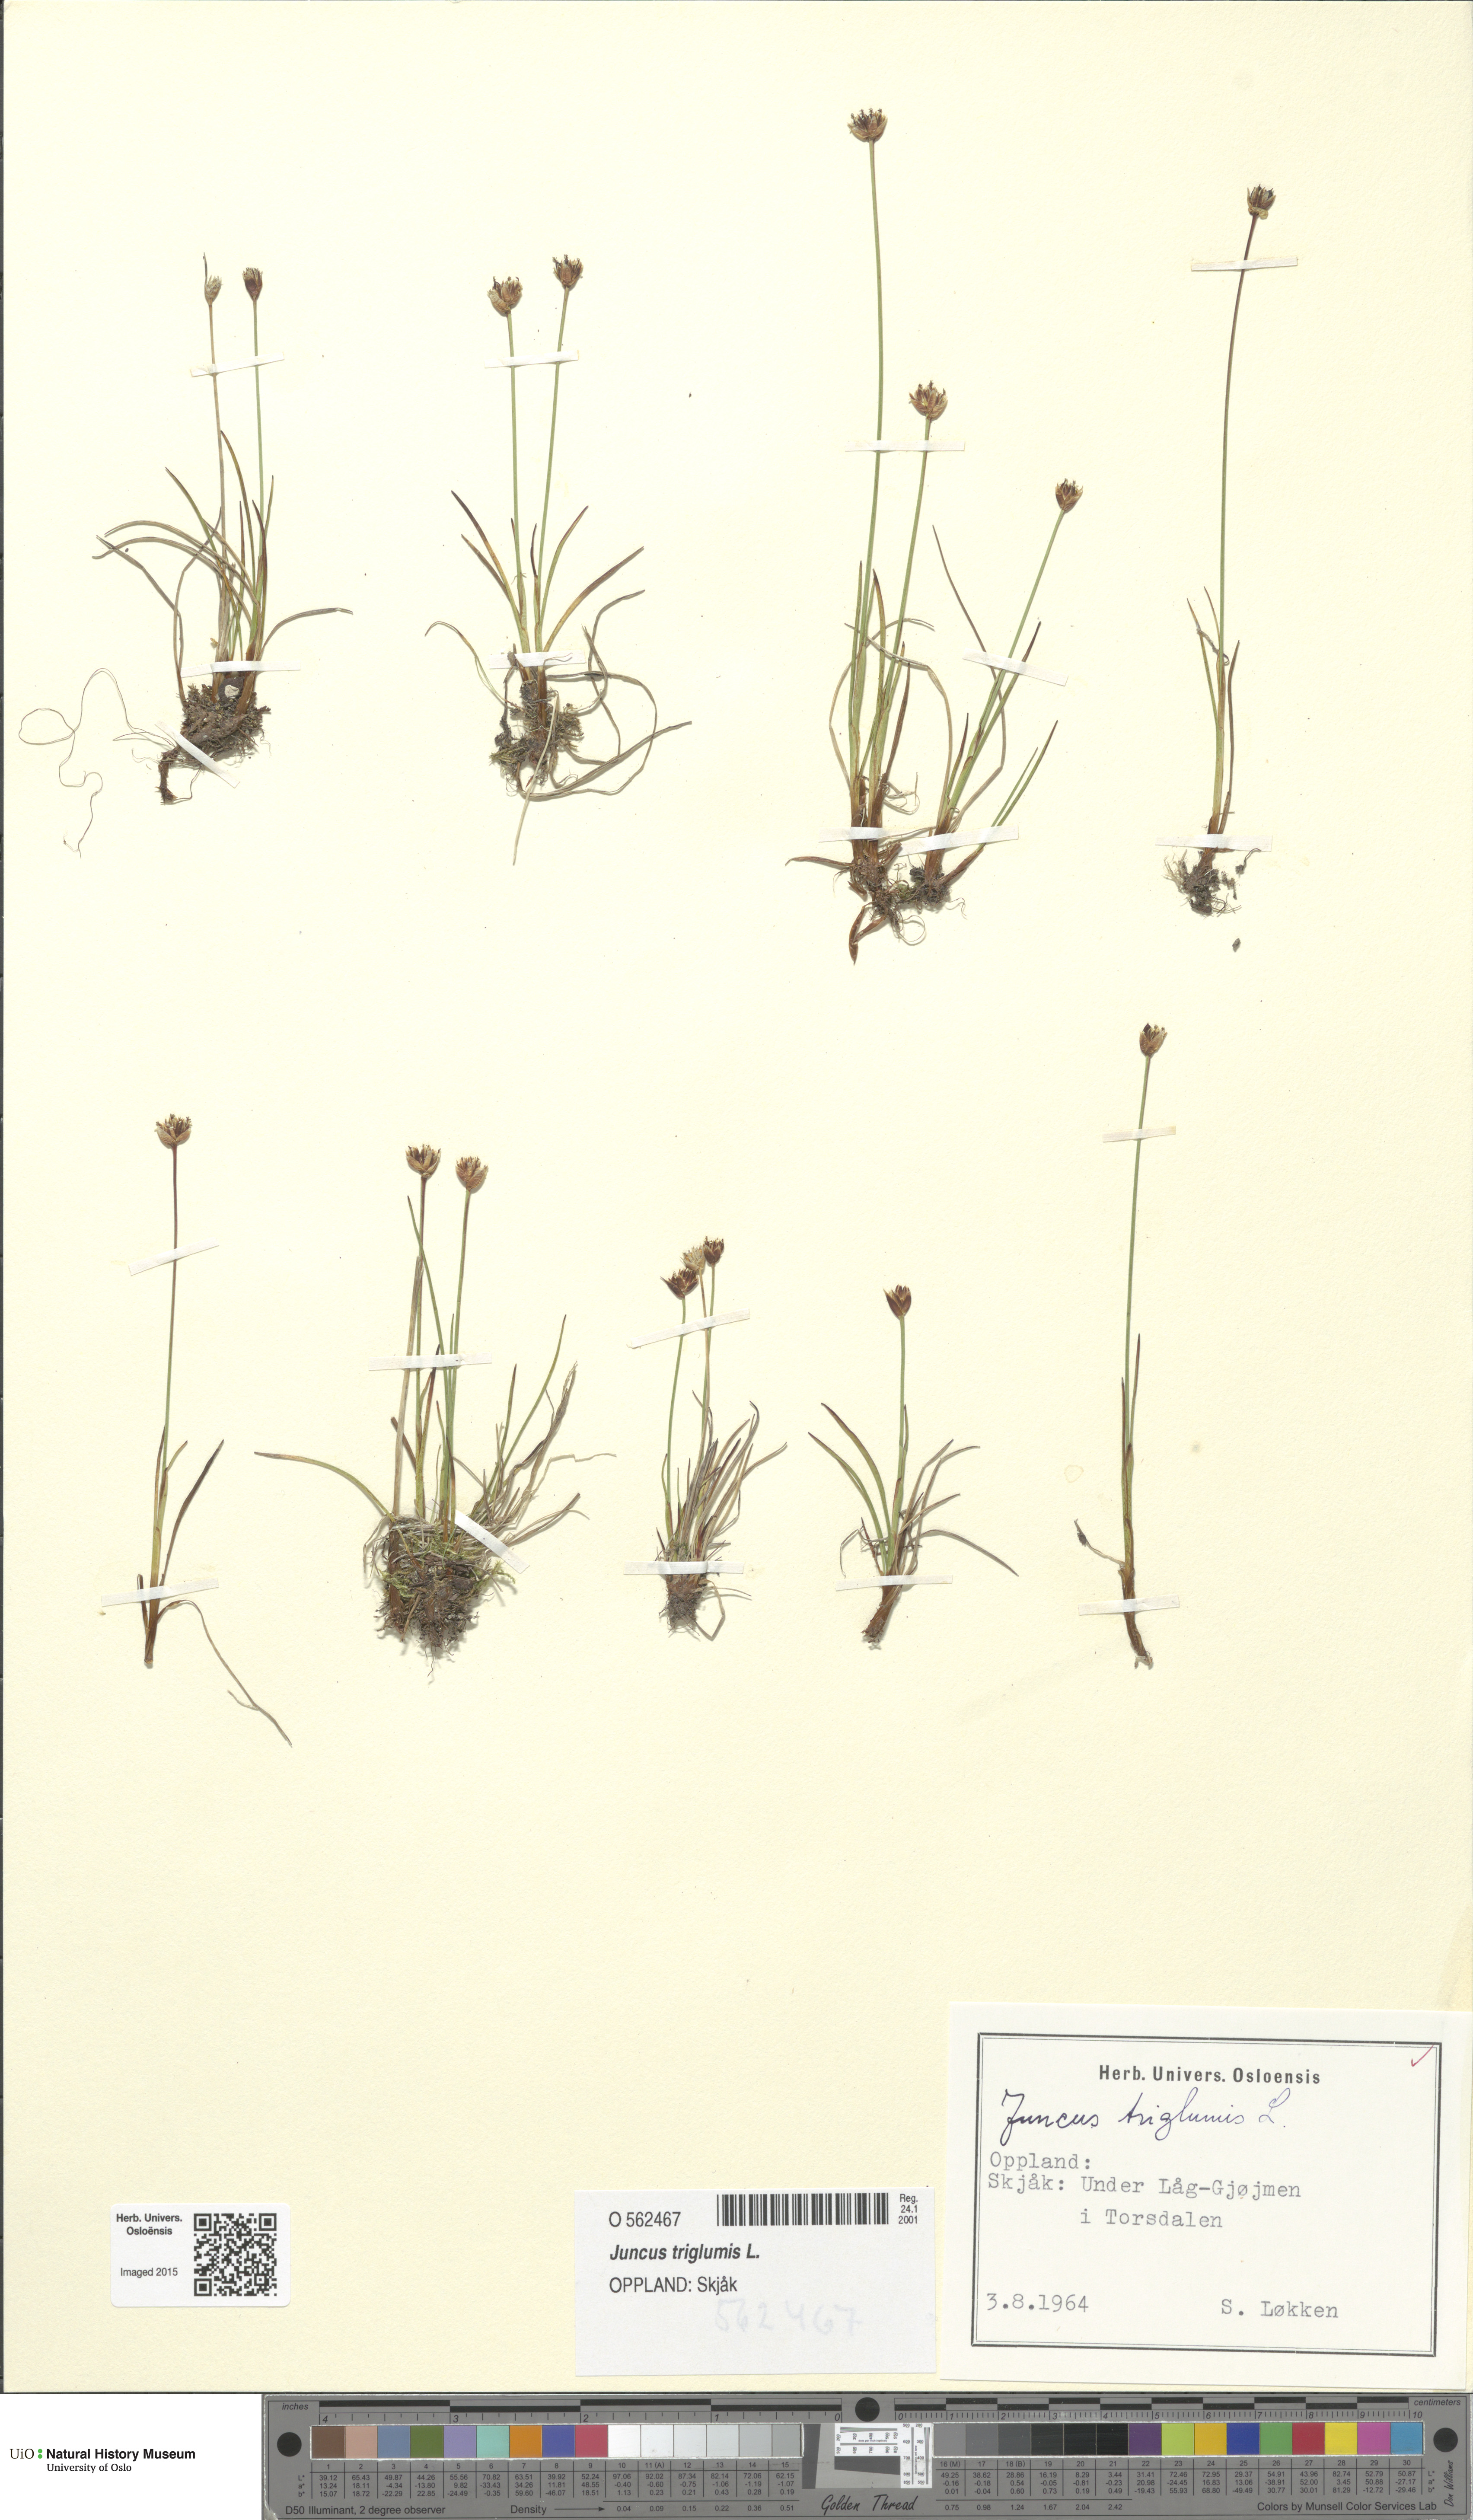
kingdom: Plantae
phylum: Tracheophyta
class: Liliopsida
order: Poales
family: Juncaceae
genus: Juncus
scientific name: Juncus triglumis
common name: Three-flowered rush
